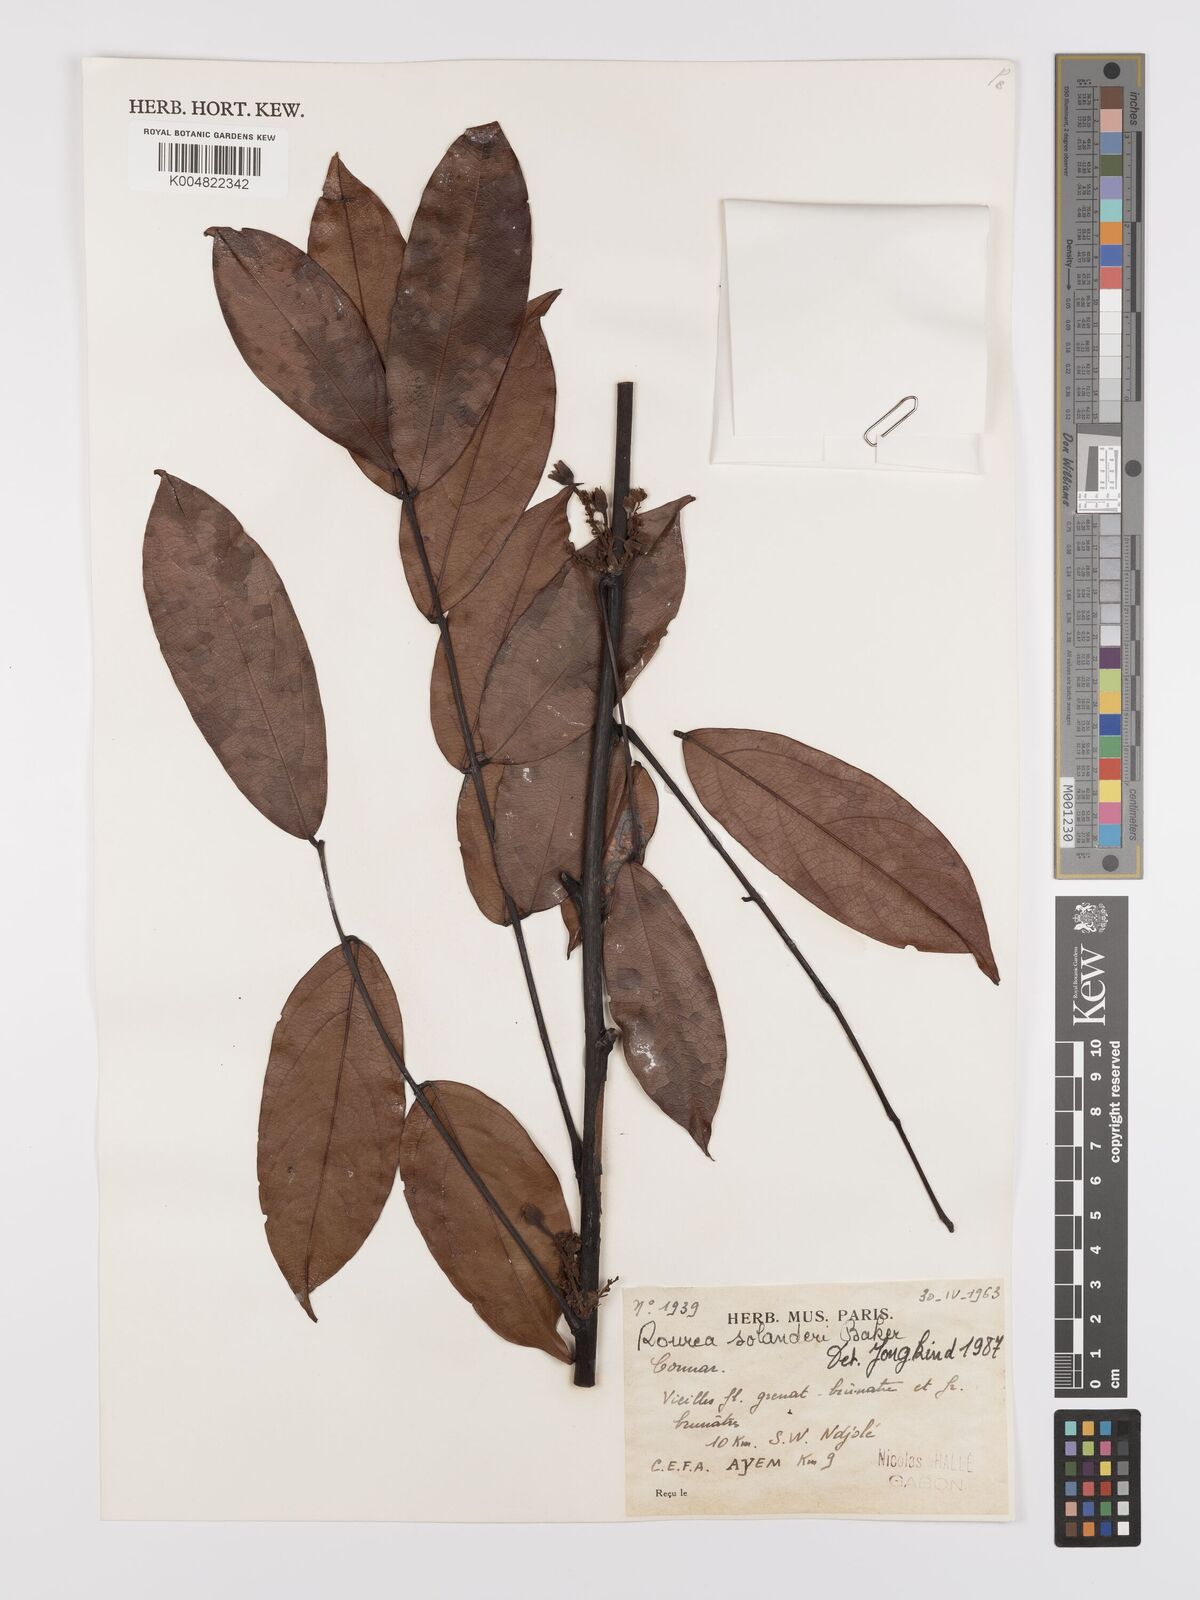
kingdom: Plantae
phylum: Tracheophyta
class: Magnoliopsida
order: Oxalidales
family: Connaraceae
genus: Rourea
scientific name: Rourea solanderi
